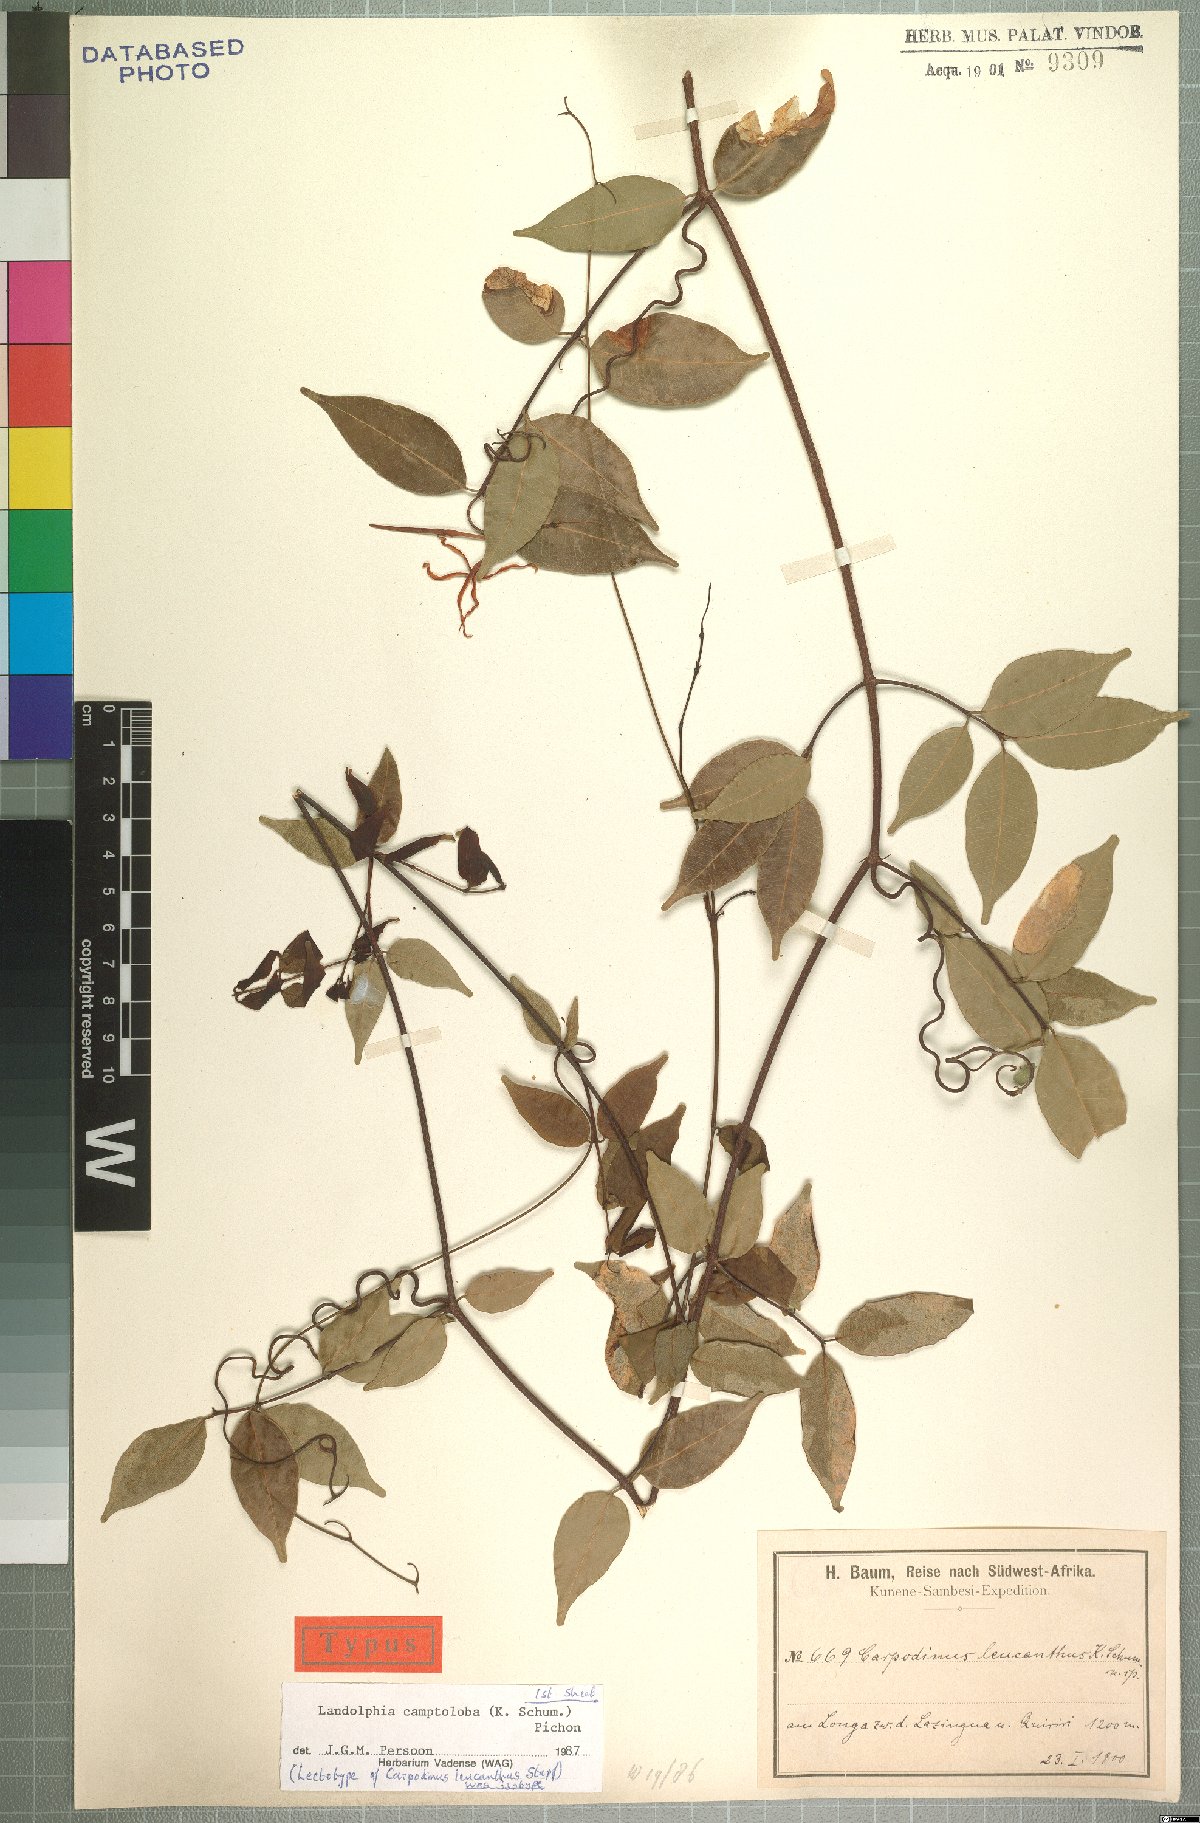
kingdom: Plantae
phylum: Tracheophyta
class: Magnoliopsida
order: Gentianales
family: Apocynaceae
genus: Landolphia
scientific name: Landolphia camptoloba
